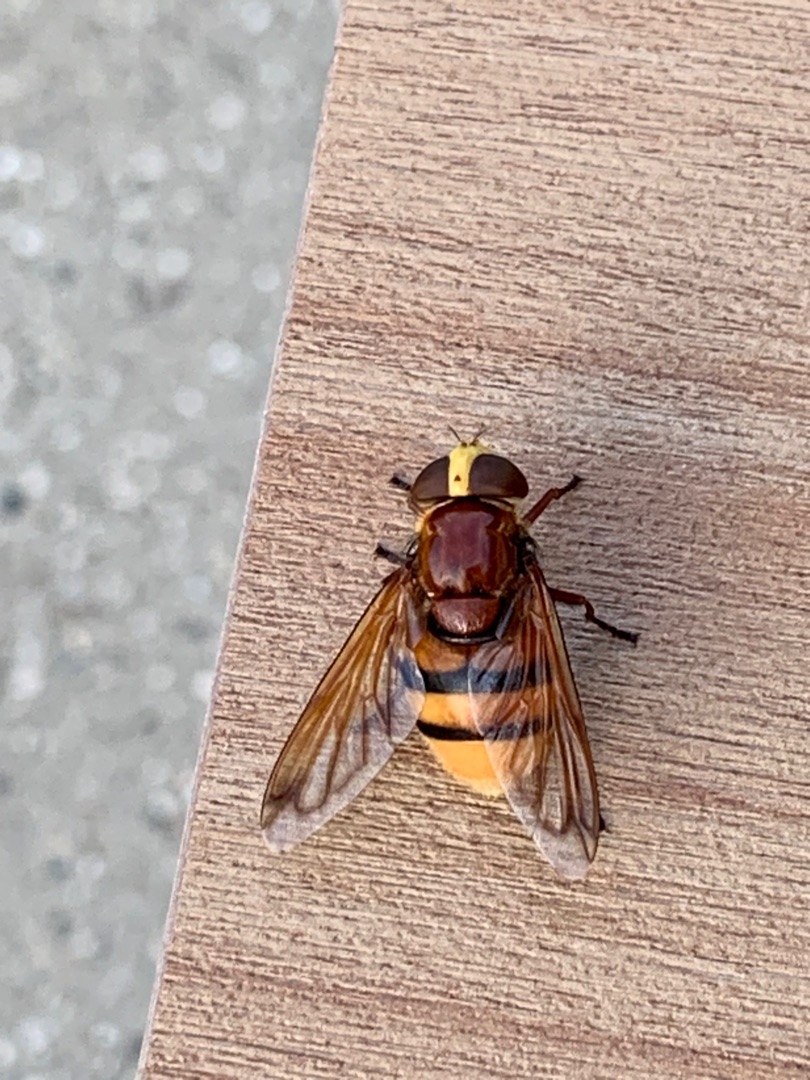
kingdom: Animalia
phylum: Arthropoda
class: Insecta
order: Diptera
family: Syrphidae
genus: Volucella
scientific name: Volucella zonaria
